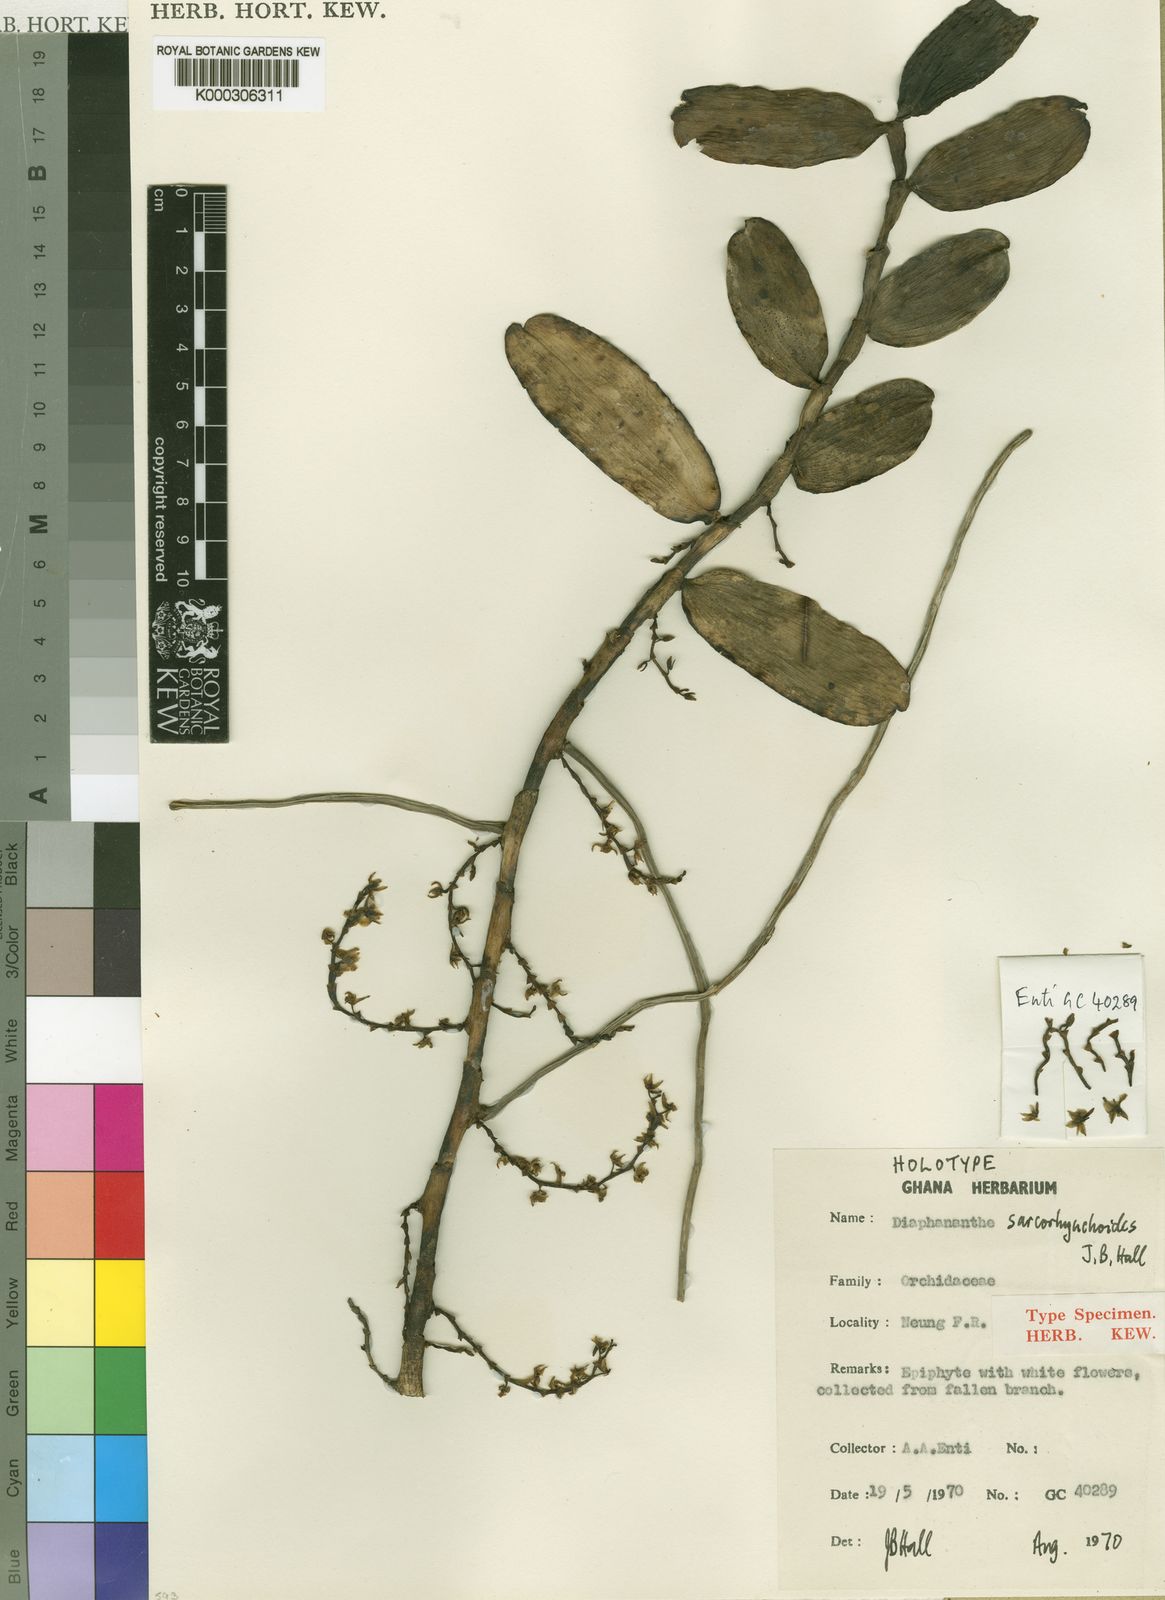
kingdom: Plantae
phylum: Tracheophyta
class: Liliopsida
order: Asparagales
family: Orchidaceae
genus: Diaphananthe
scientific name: Diaphananthe sarcorhynchoides
